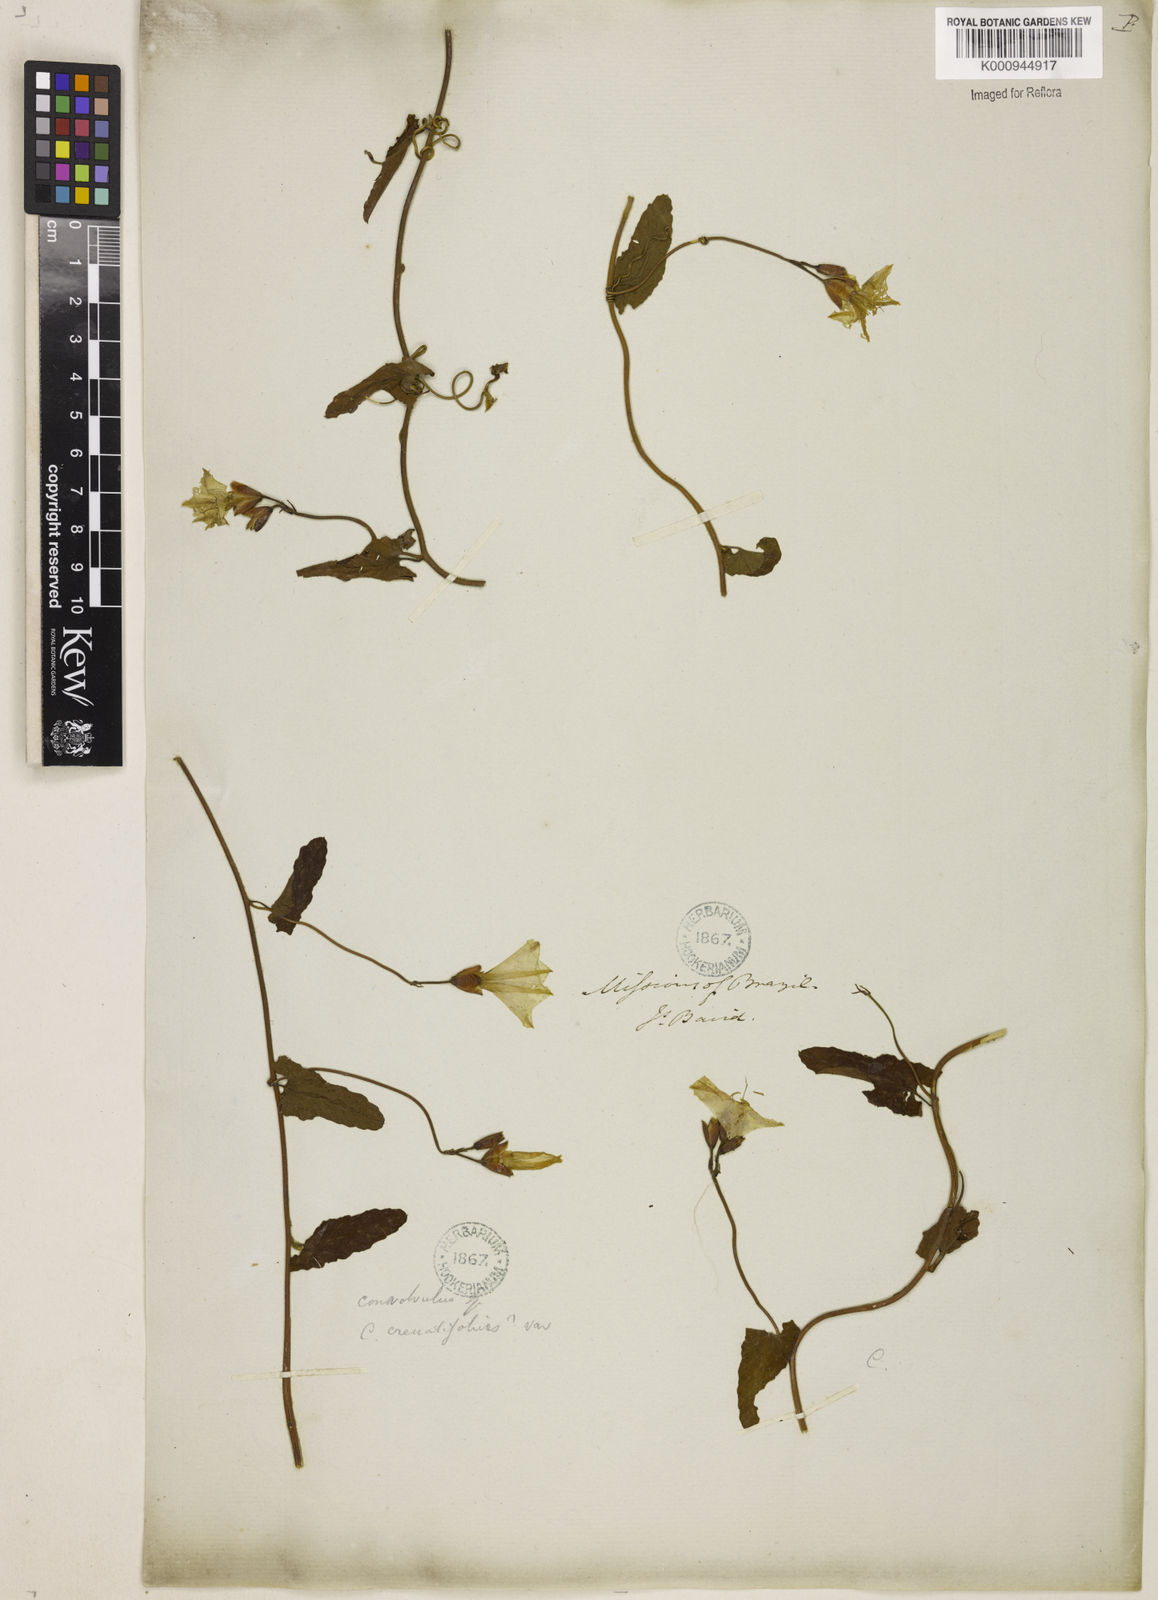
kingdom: Plantae
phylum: Tracheophyta
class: Magnoliopsida
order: Solanales
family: Convolvulaceae
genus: Convolvulus
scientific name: Convolvulus crenatifolius
